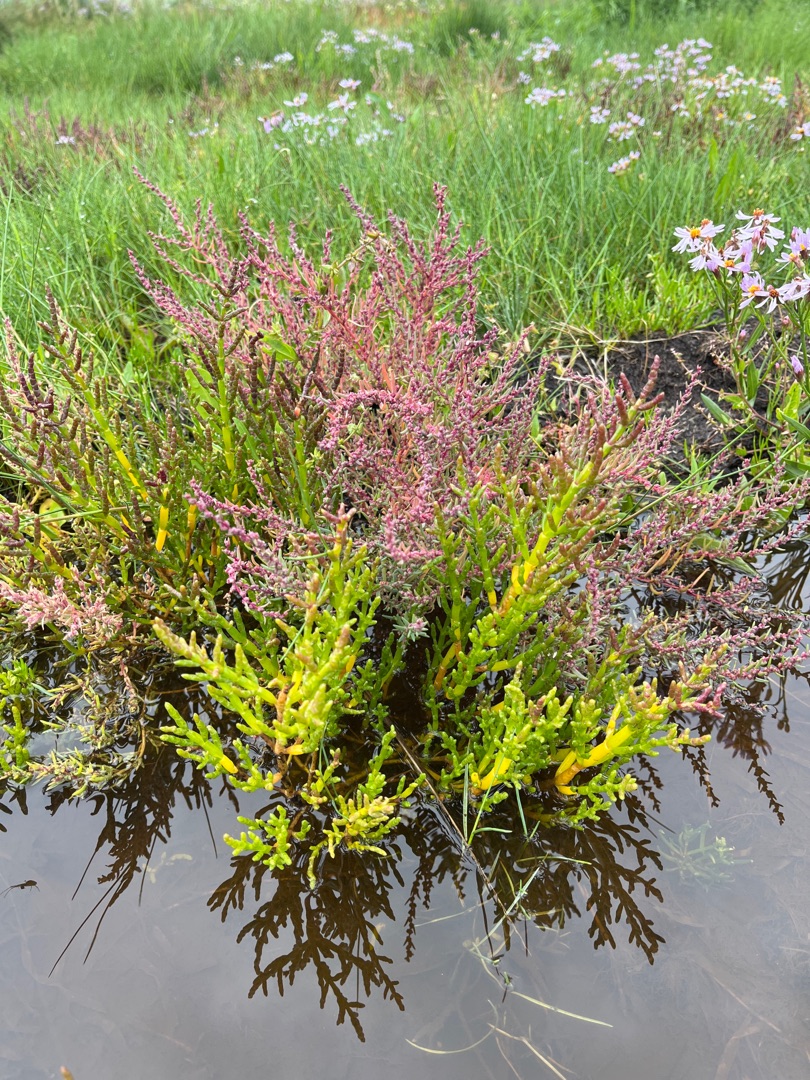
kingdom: Plantae
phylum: Tracheophyta
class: Magnoliopsida
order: Caryophyllales
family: Amaranthaceae
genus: Salicornia
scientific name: Salicornia europaea
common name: Almindelig salturt
